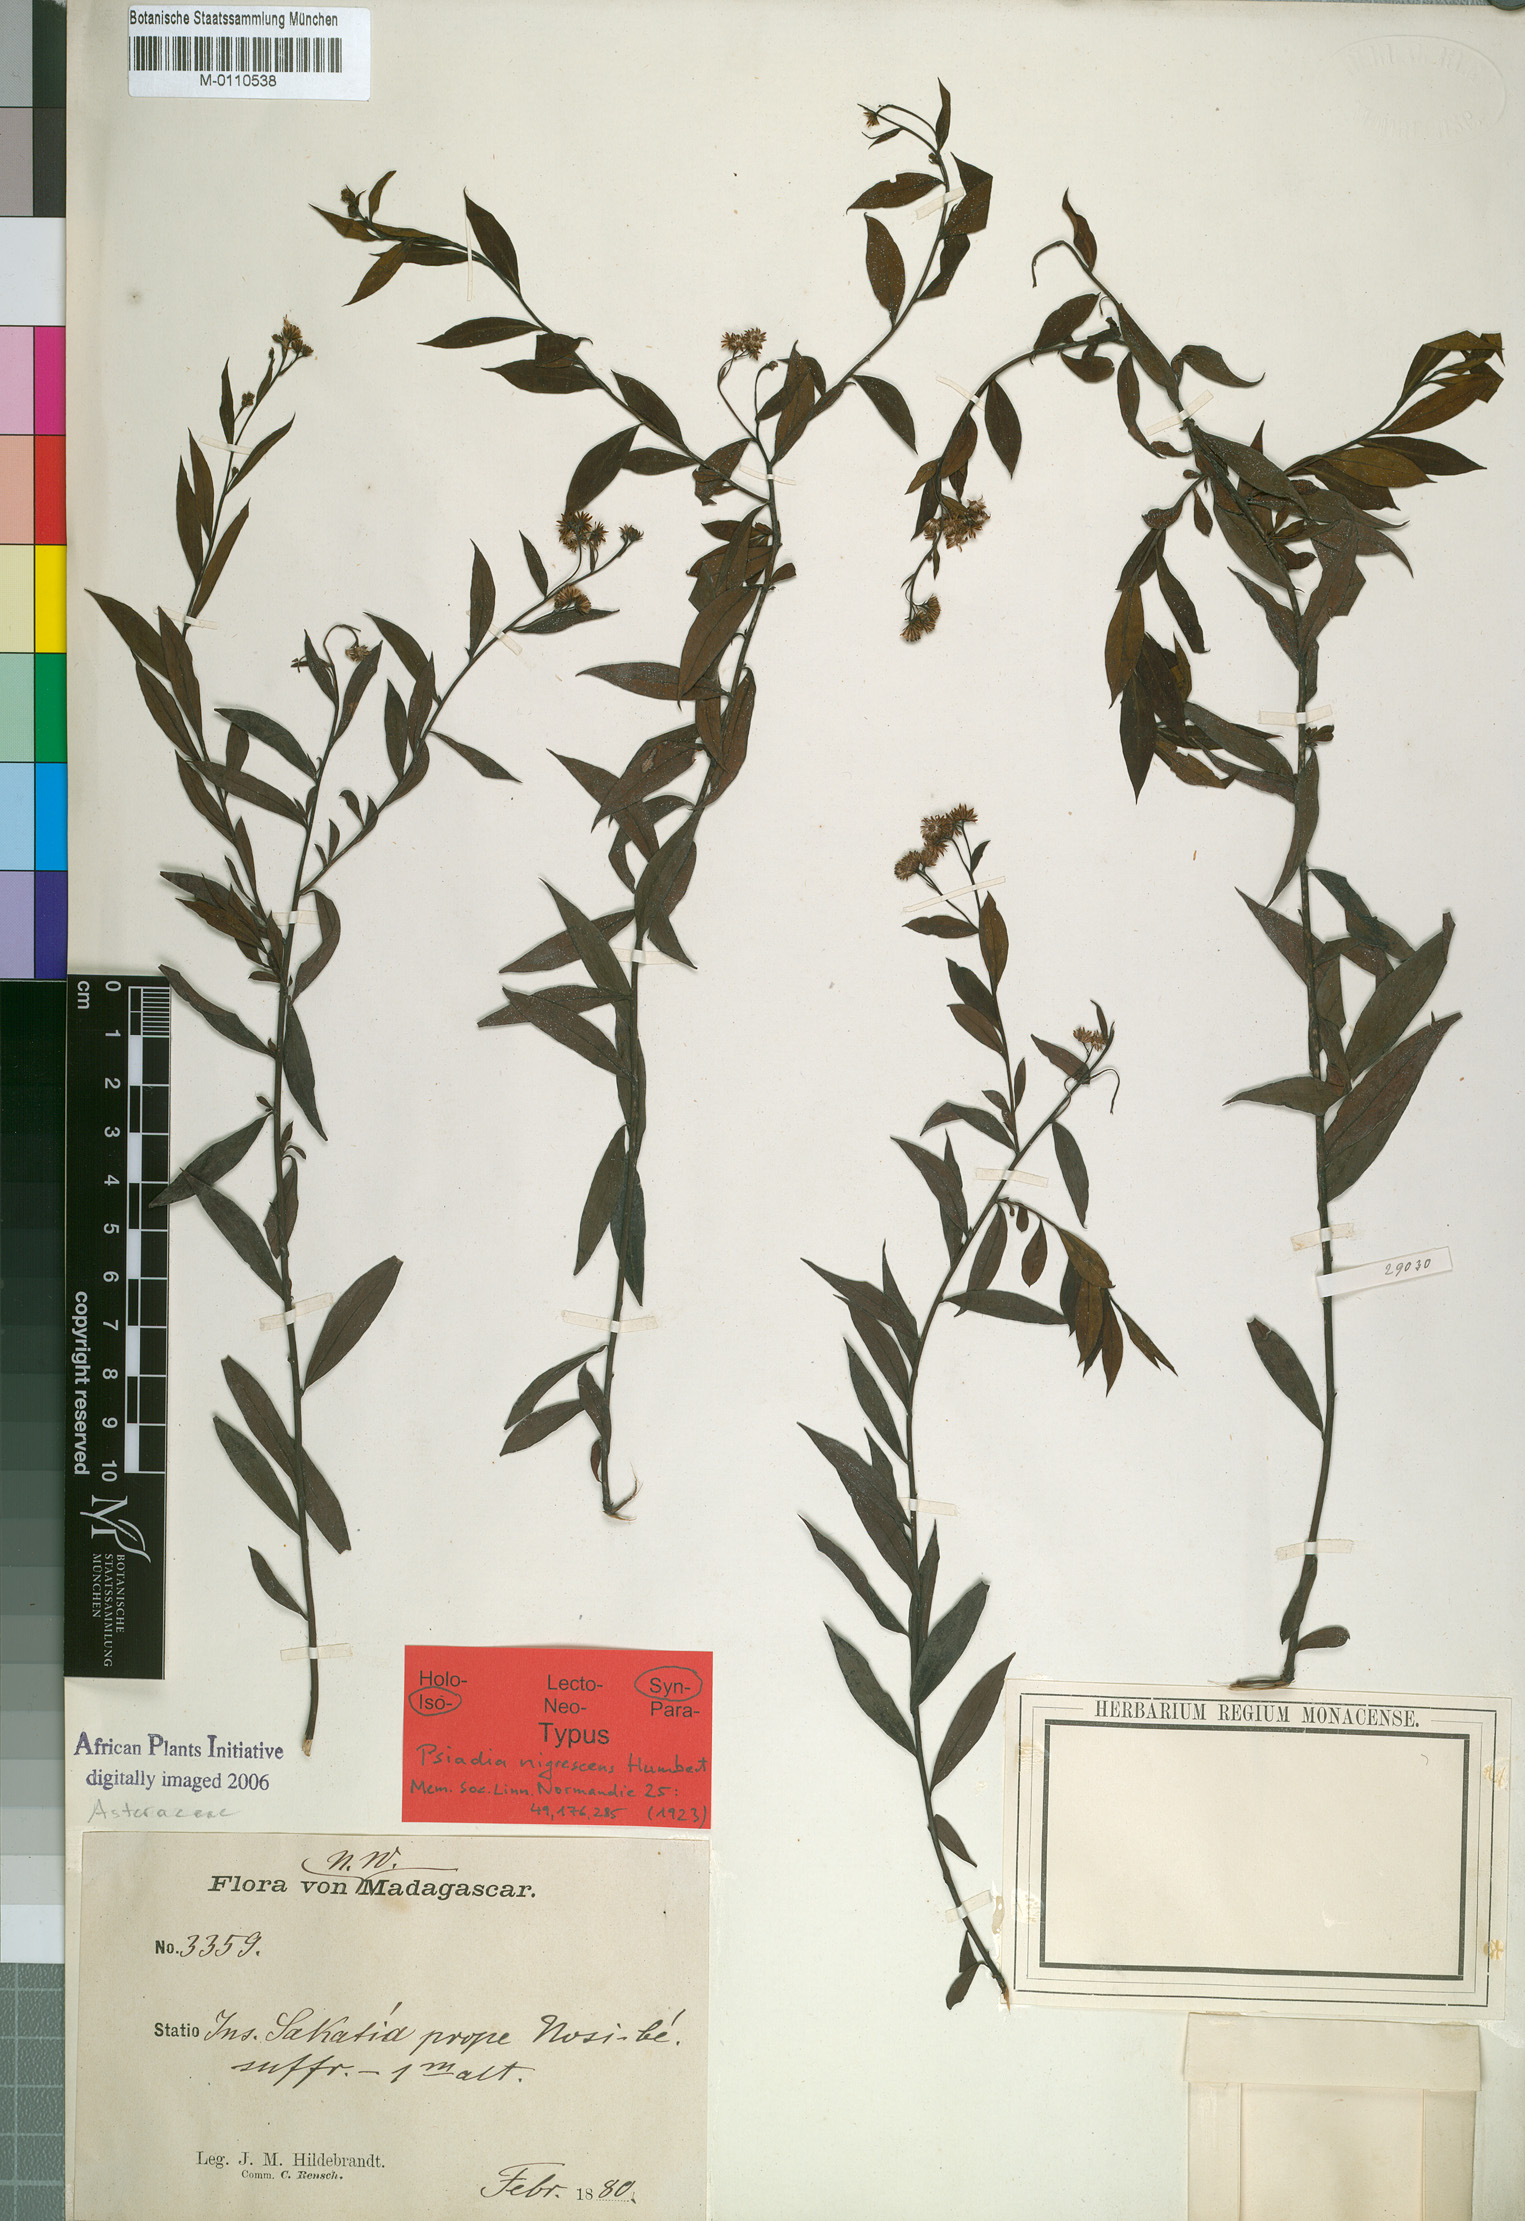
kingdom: Plantae
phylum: Tracheophyta
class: Magnoliopsida
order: Asterales
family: Asteraceae
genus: Psiadia
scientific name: Psiadia nigrescens
